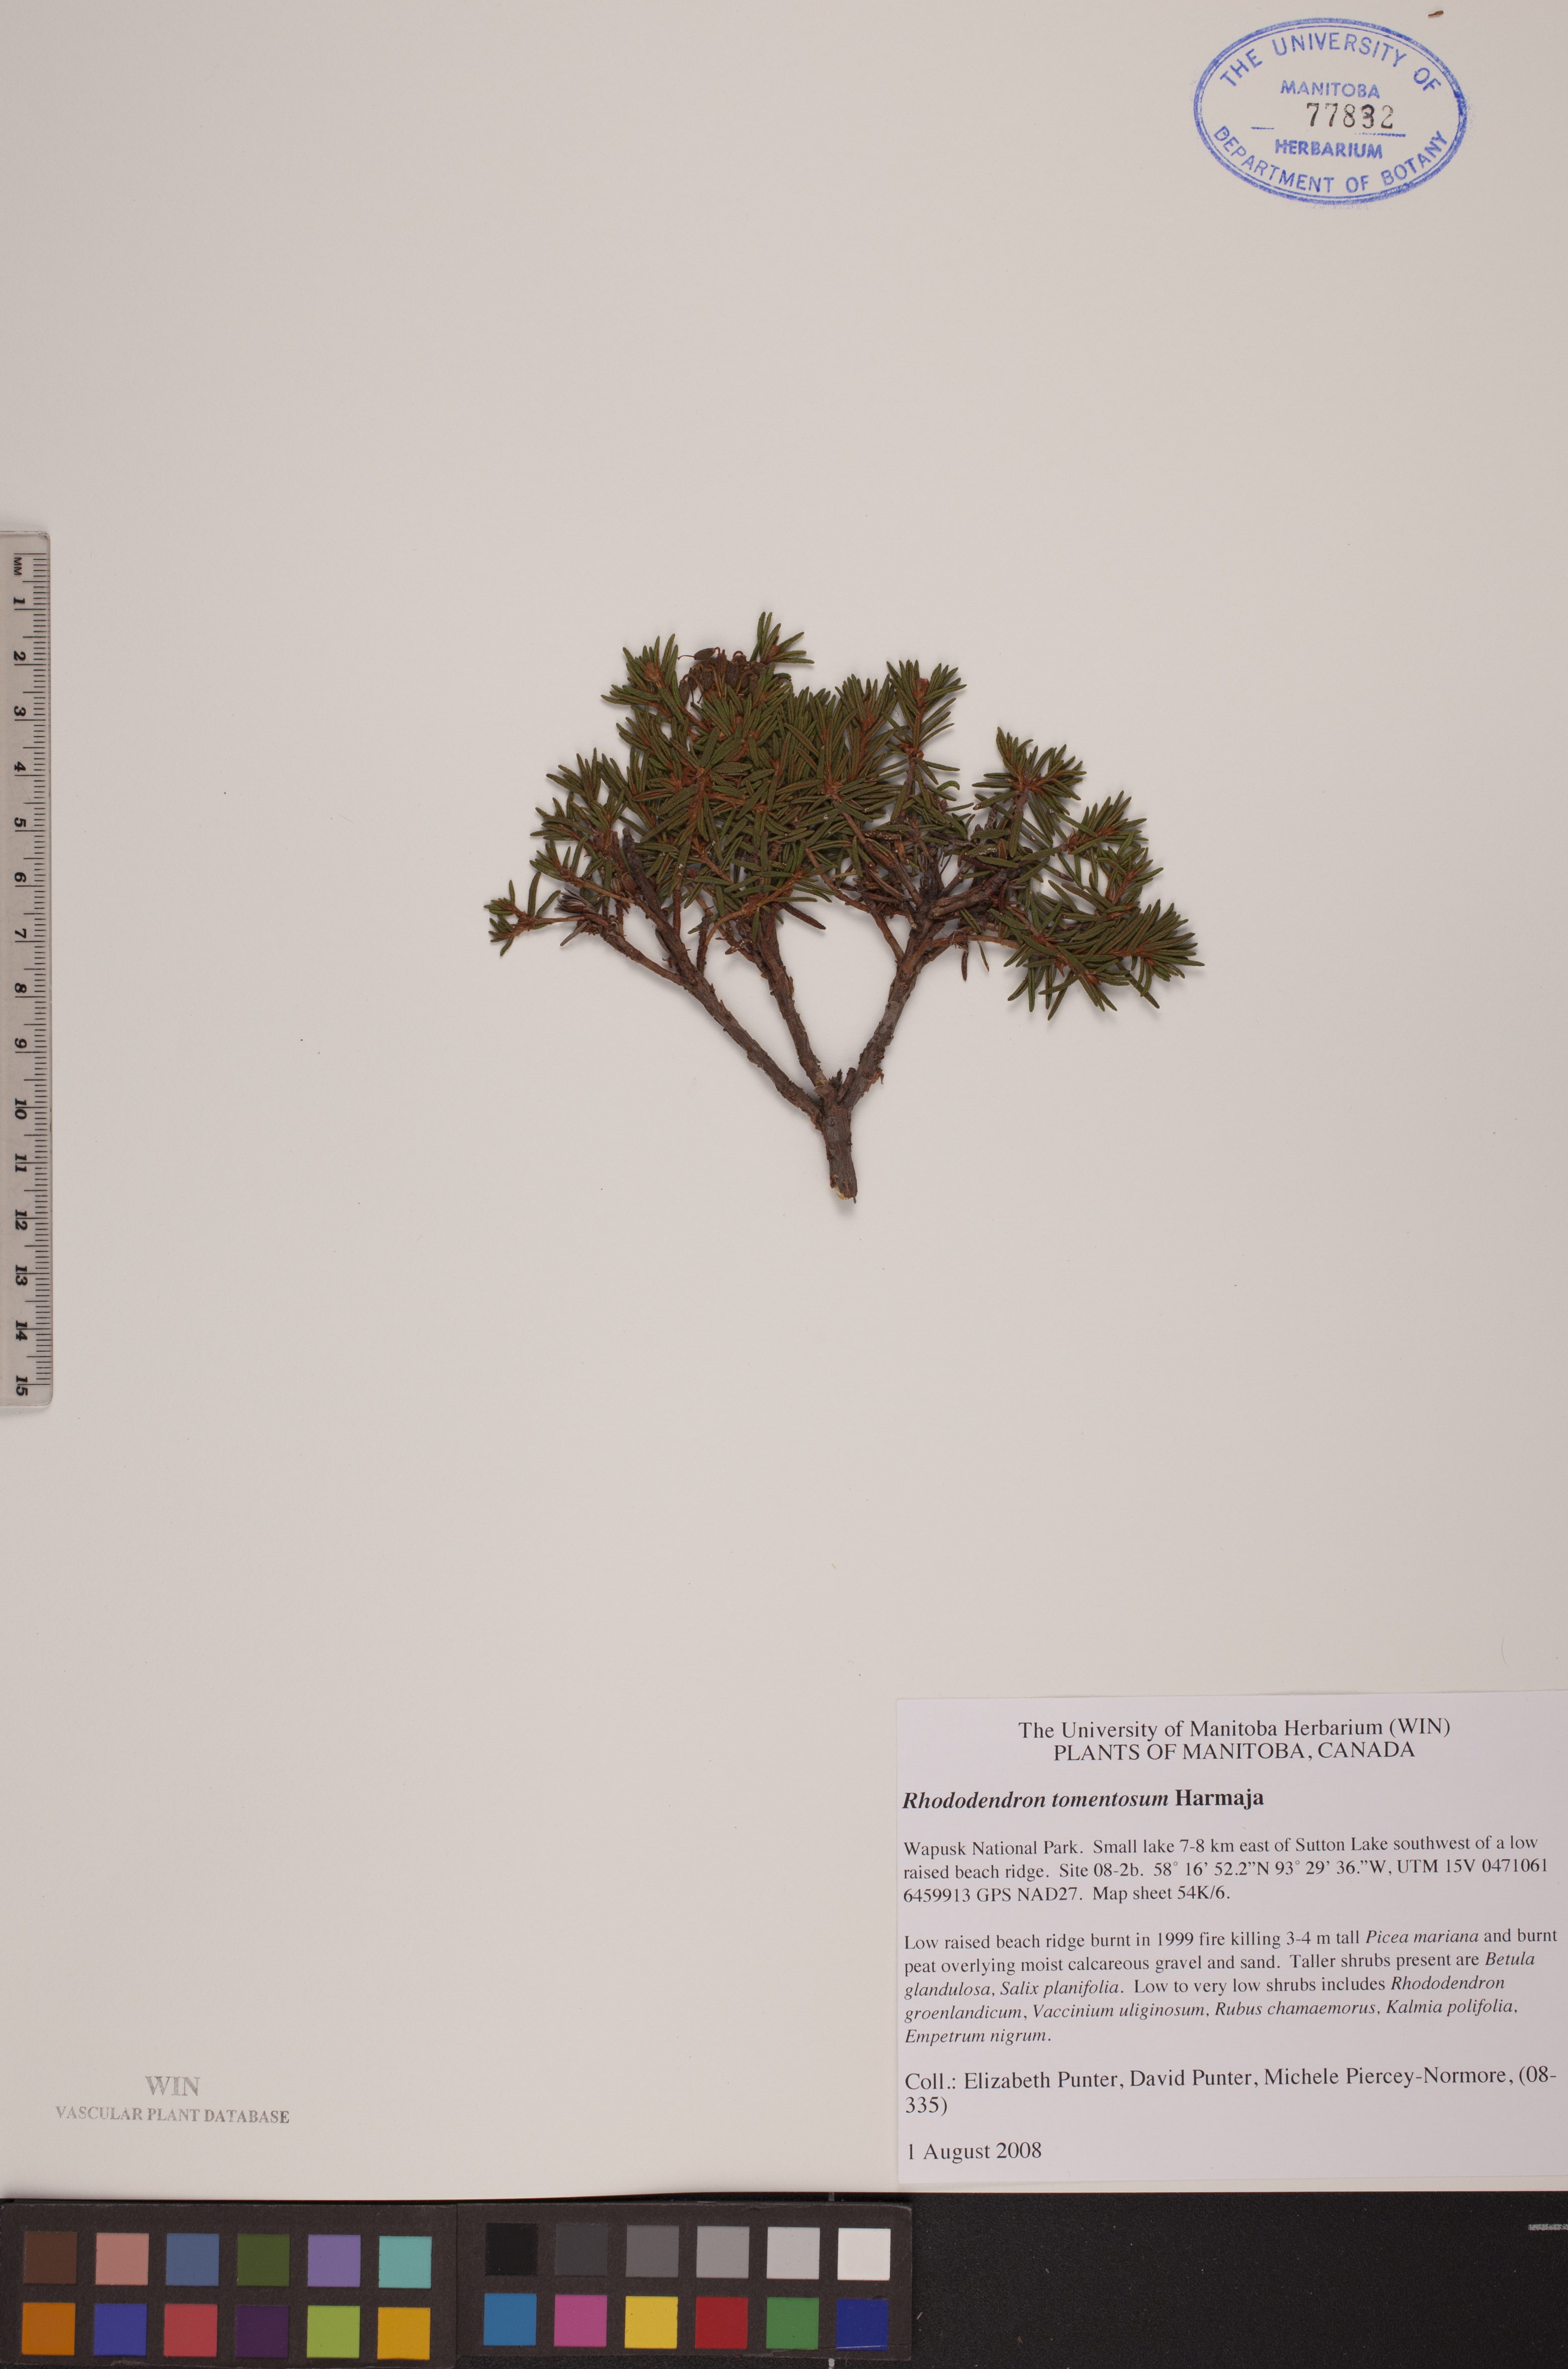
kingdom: Plantae
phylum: Tracheophyta
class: Magnoliopsida
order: Ericales
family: Ericaceae
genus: Rhododendron
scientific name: Rhododendron tomentosum
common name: Marsh labrador tea
